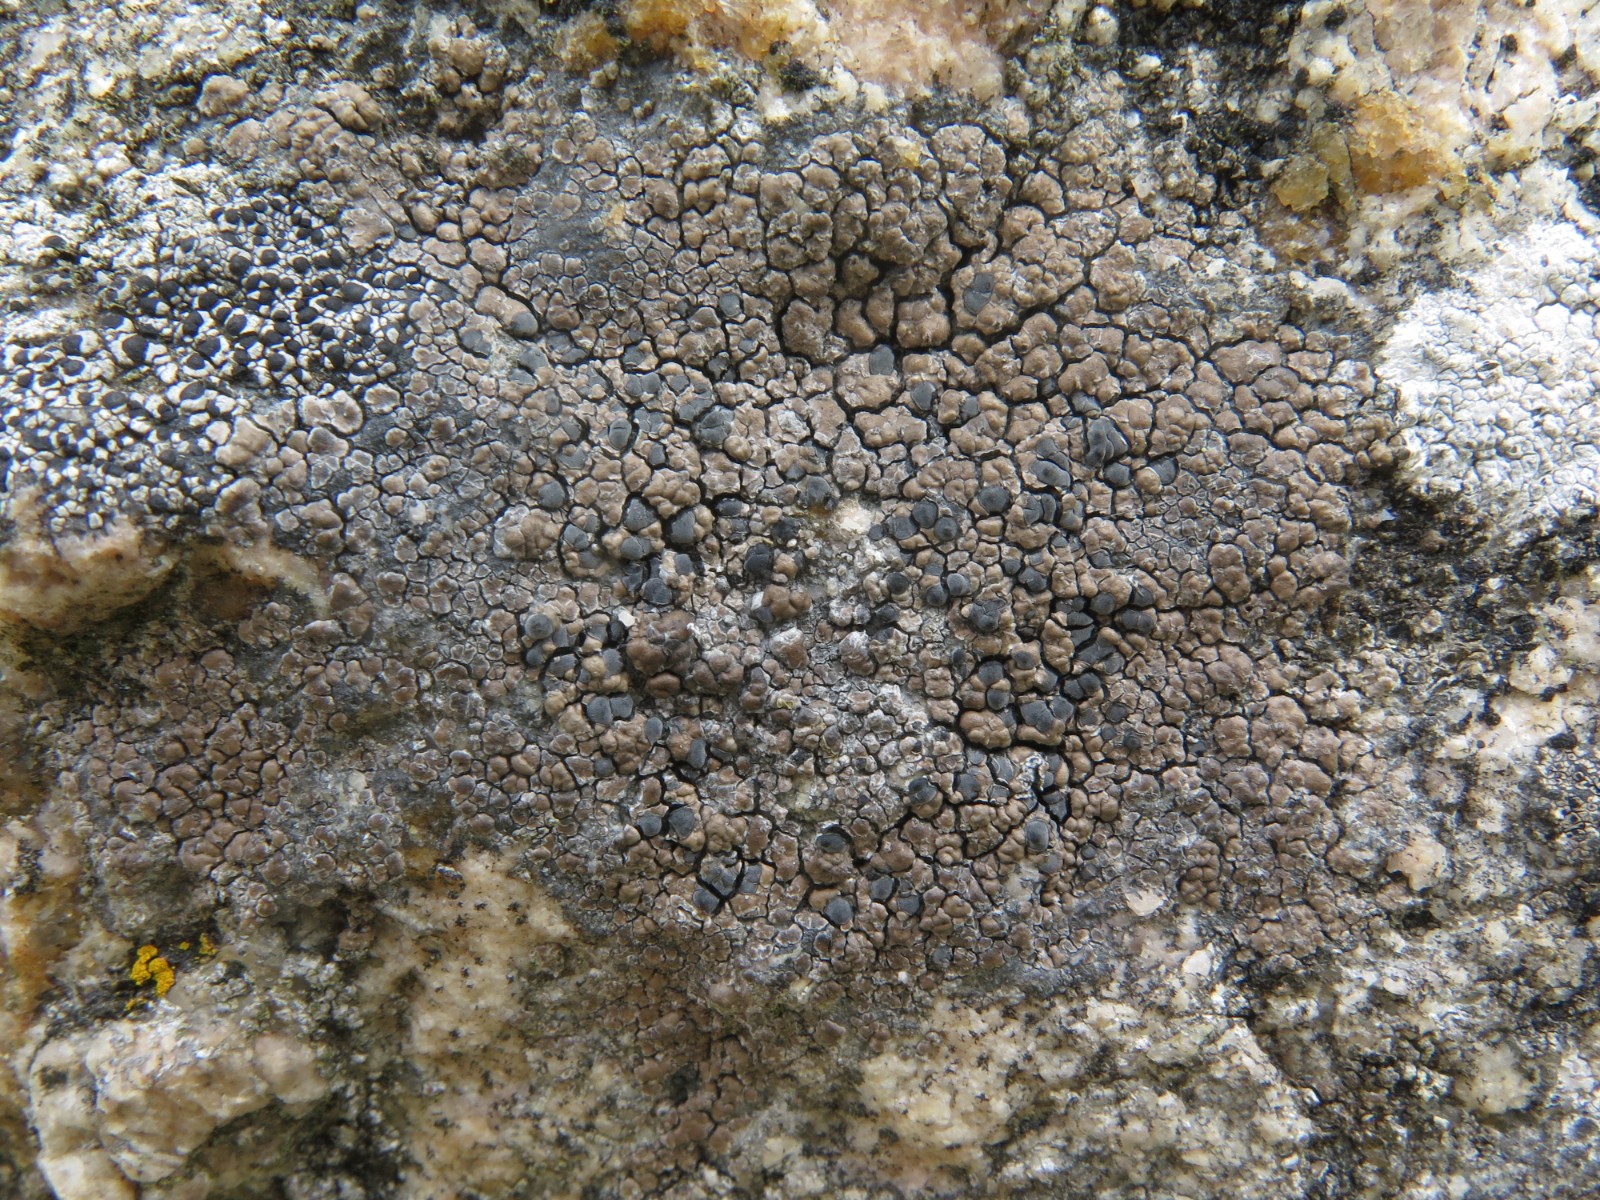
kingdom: Fungi
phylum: Ascomycota
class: Lecanoromycetes
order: Lecideales
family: Lecideaceae
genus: Lecidea
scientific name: Lecidea fuscoatra
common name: rudret skivelav
